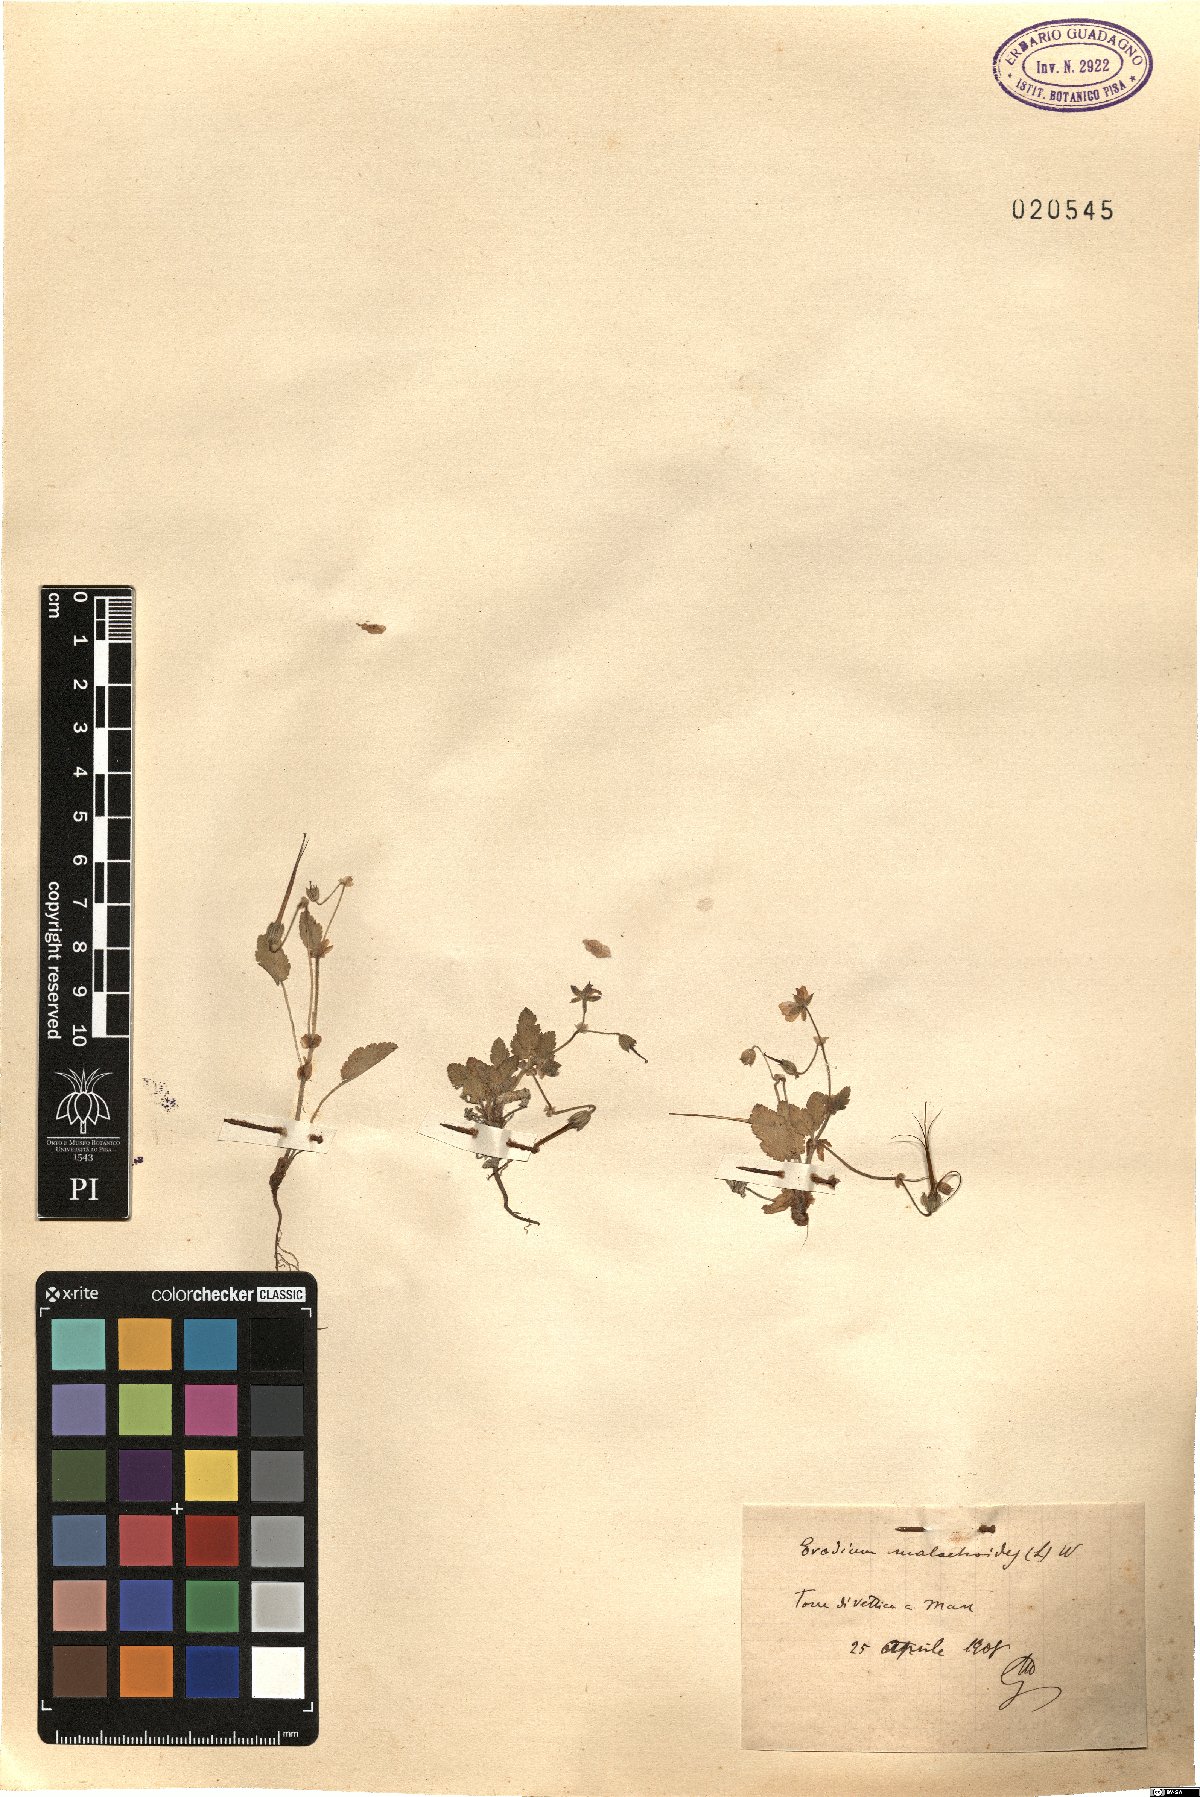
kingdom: Plantae
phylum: Tracheophyta
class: Magnoliopsida
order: Geraniales
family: Geraniaceae
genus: Erodium
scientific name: Erodium malacoides
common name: Soft stork's-bill
